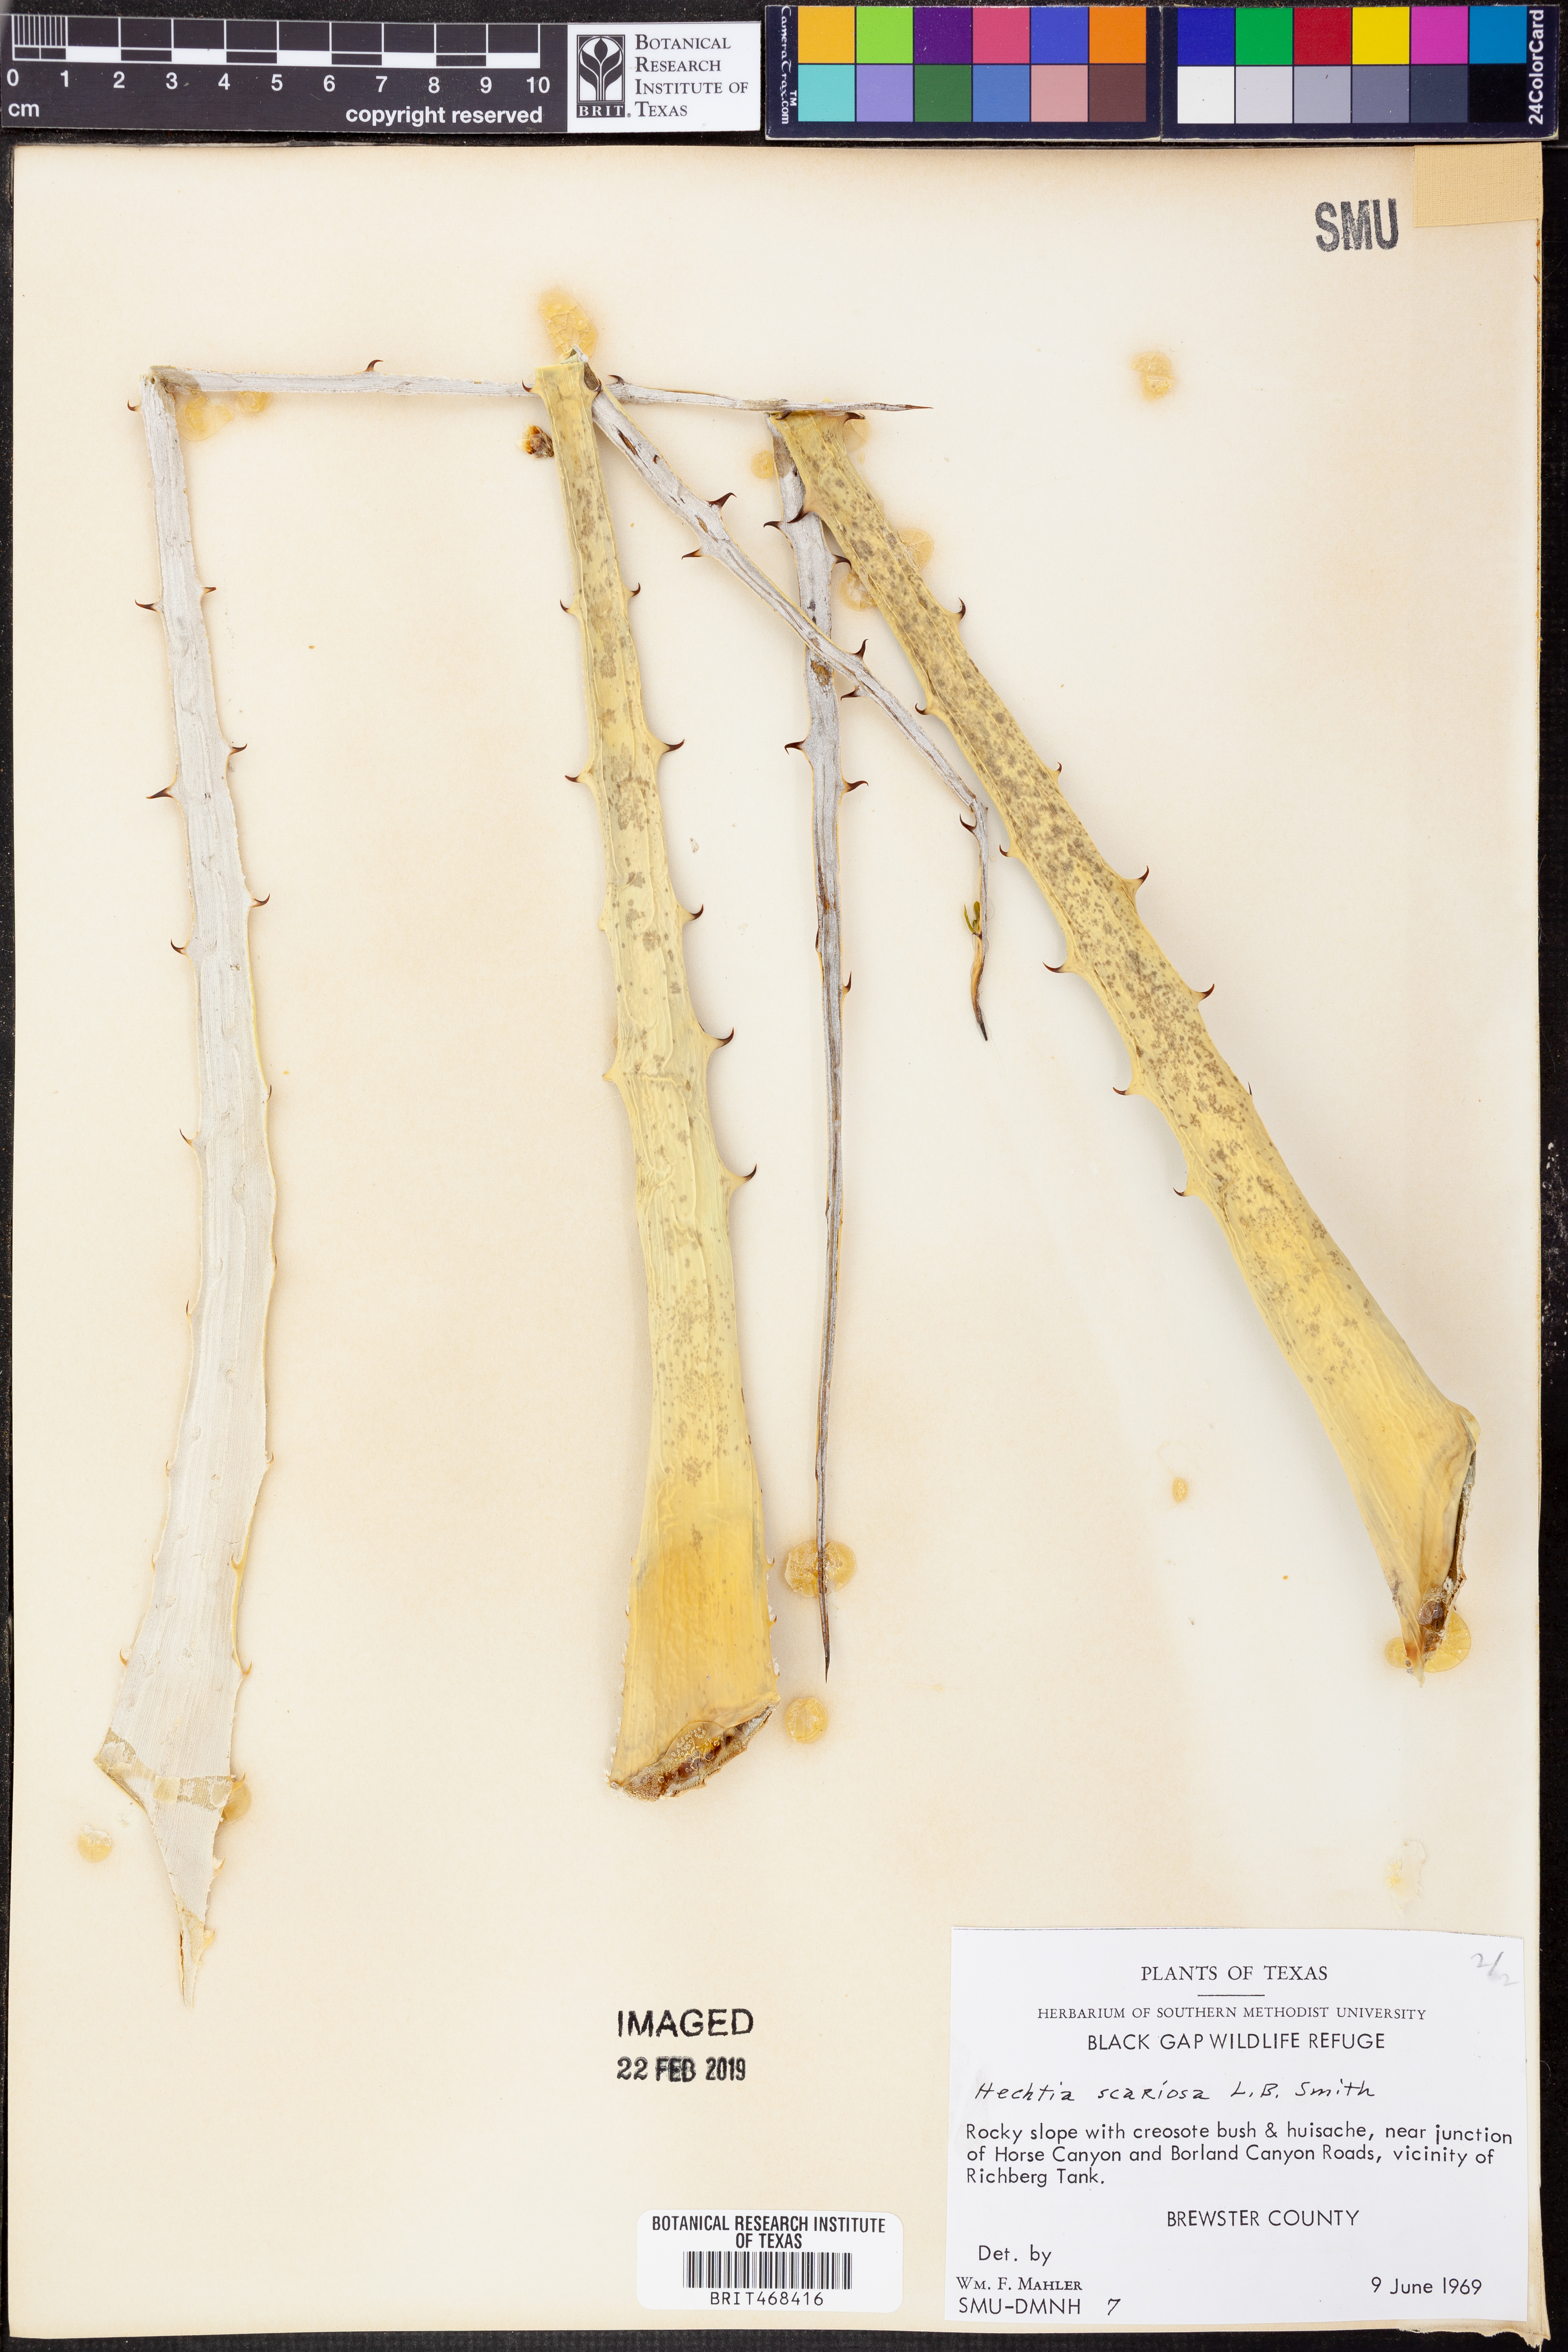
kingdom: Plantae
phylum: Tracheophyta
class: Liliopsida
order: Poales
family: Bromeliaceae
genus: Hechtia
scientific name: Hechtia texensis
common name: False agave
